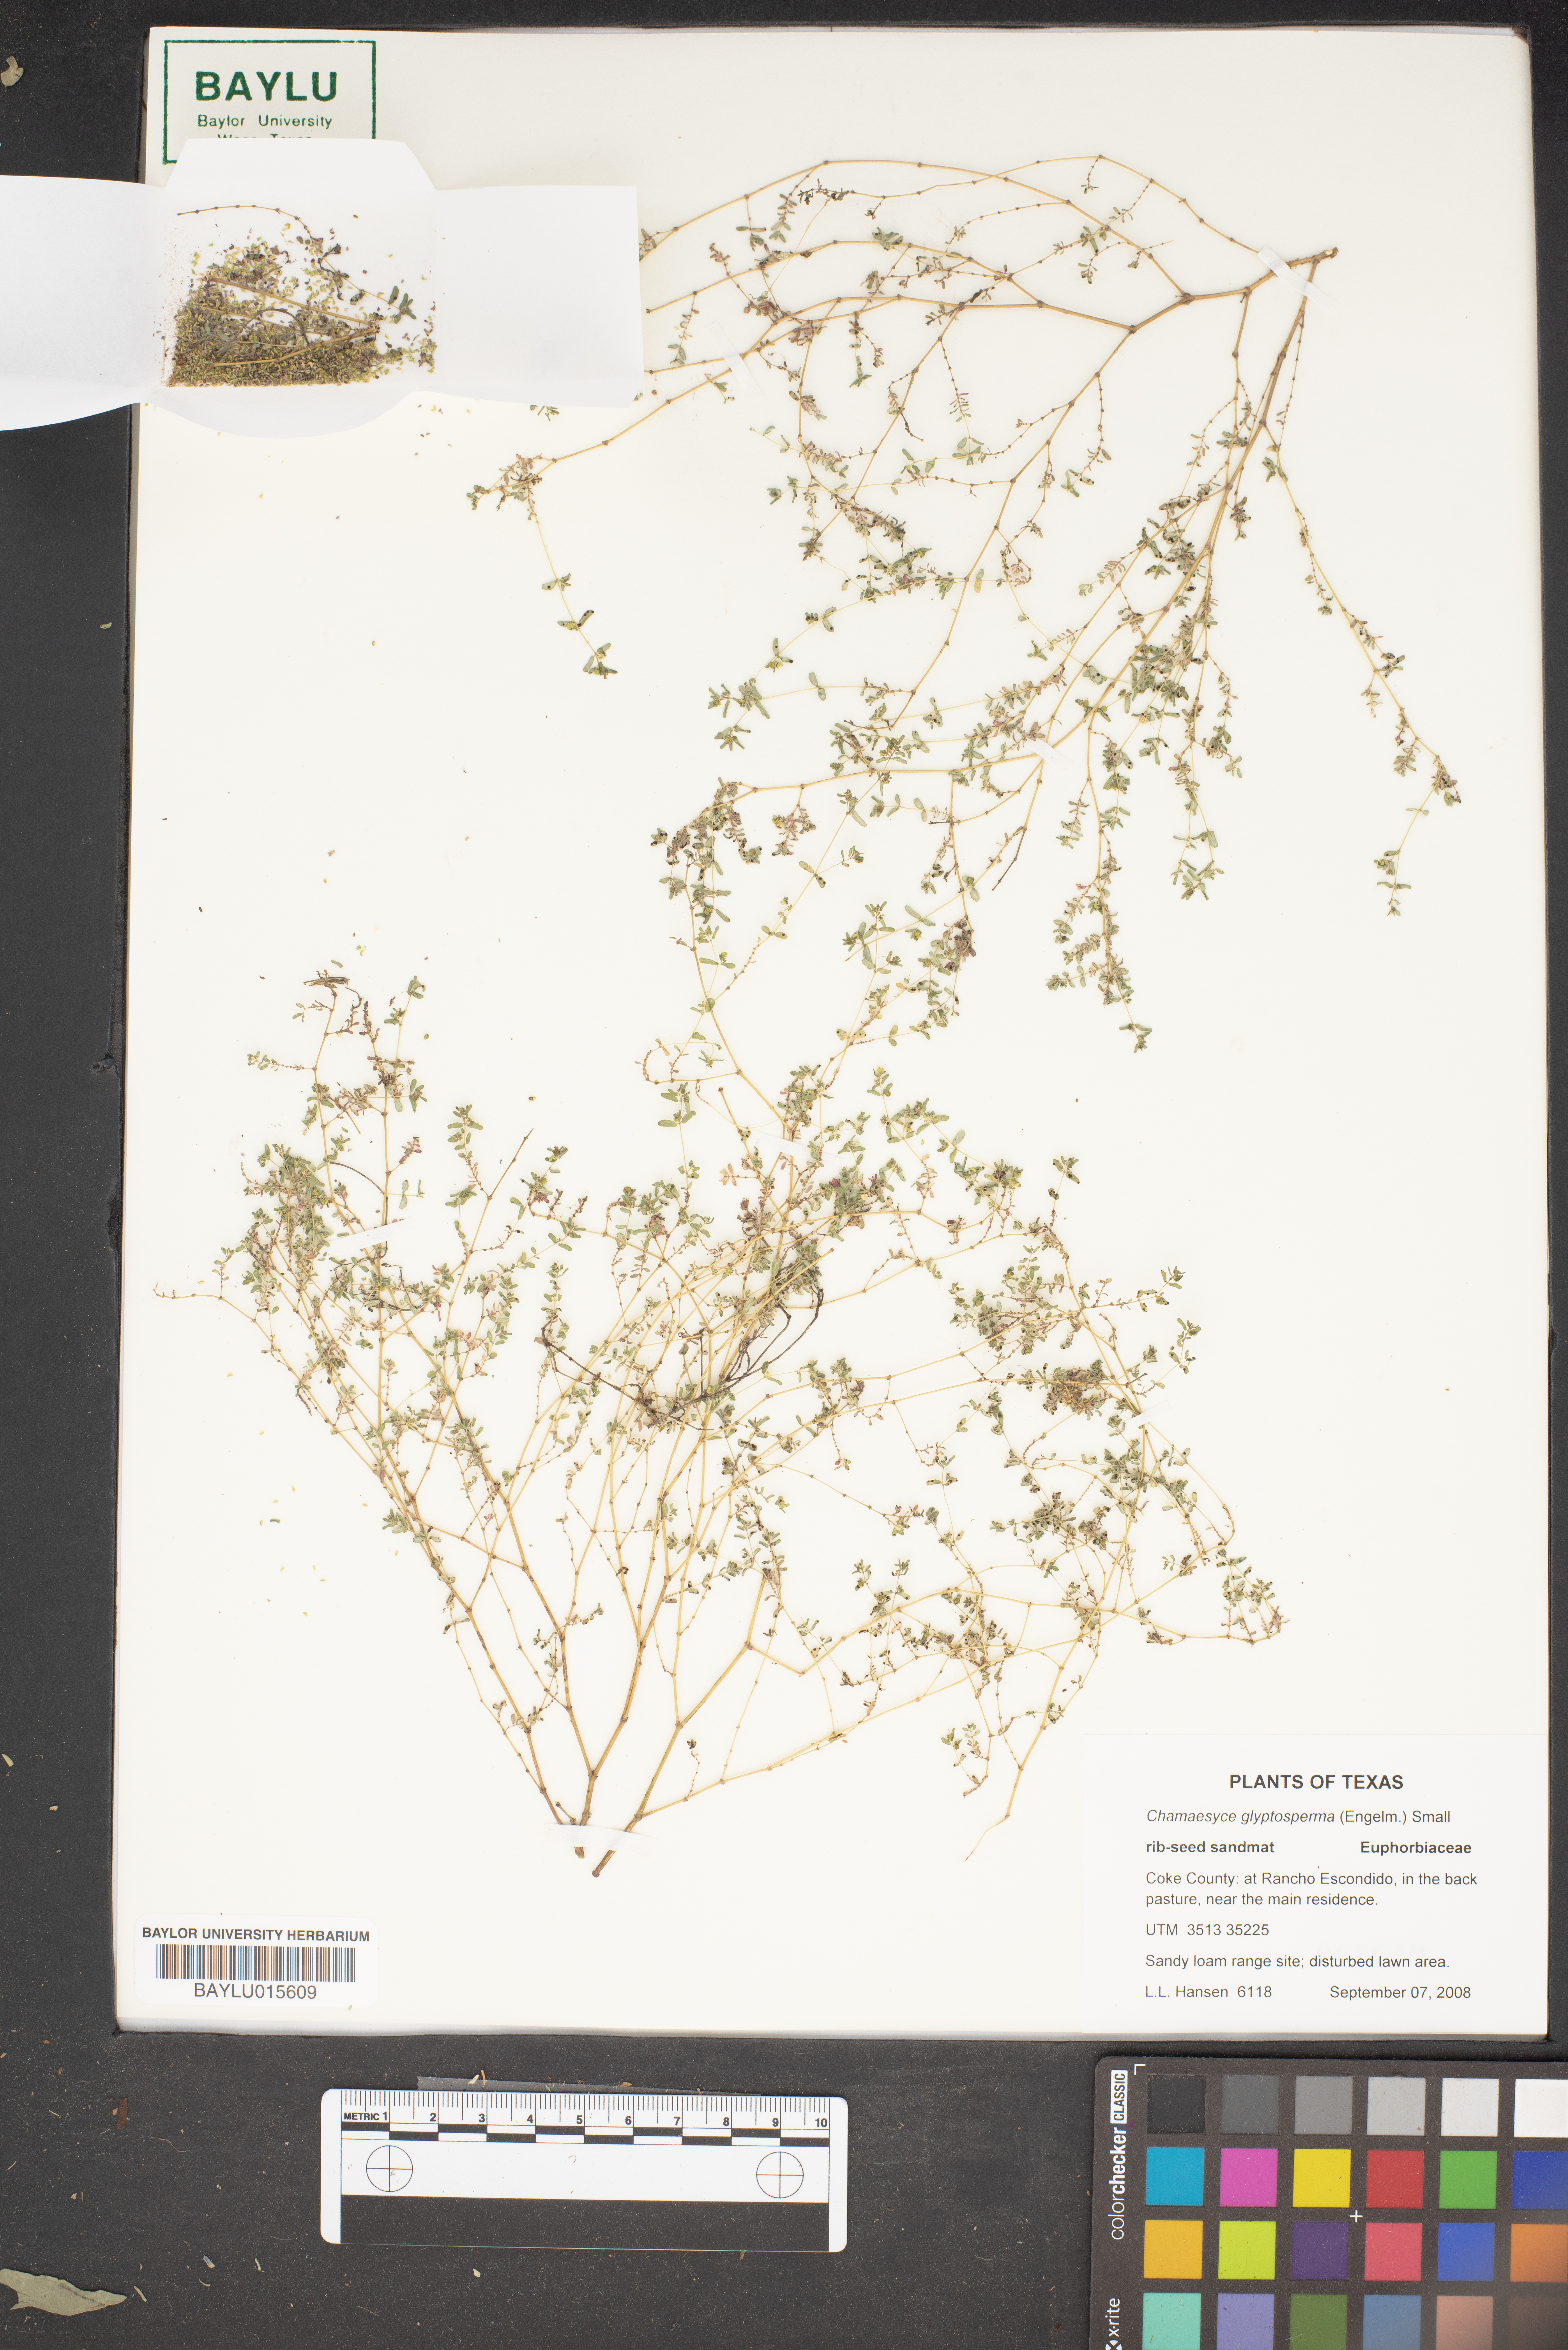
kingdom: Plantae
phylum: Tracheophyta
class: Magnoliopsida
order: Malpighiales
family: Euphorbiaceae
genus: Euphorbia
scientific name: Euphorbia glyptosperma
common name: Corrugate-seeded spurge
